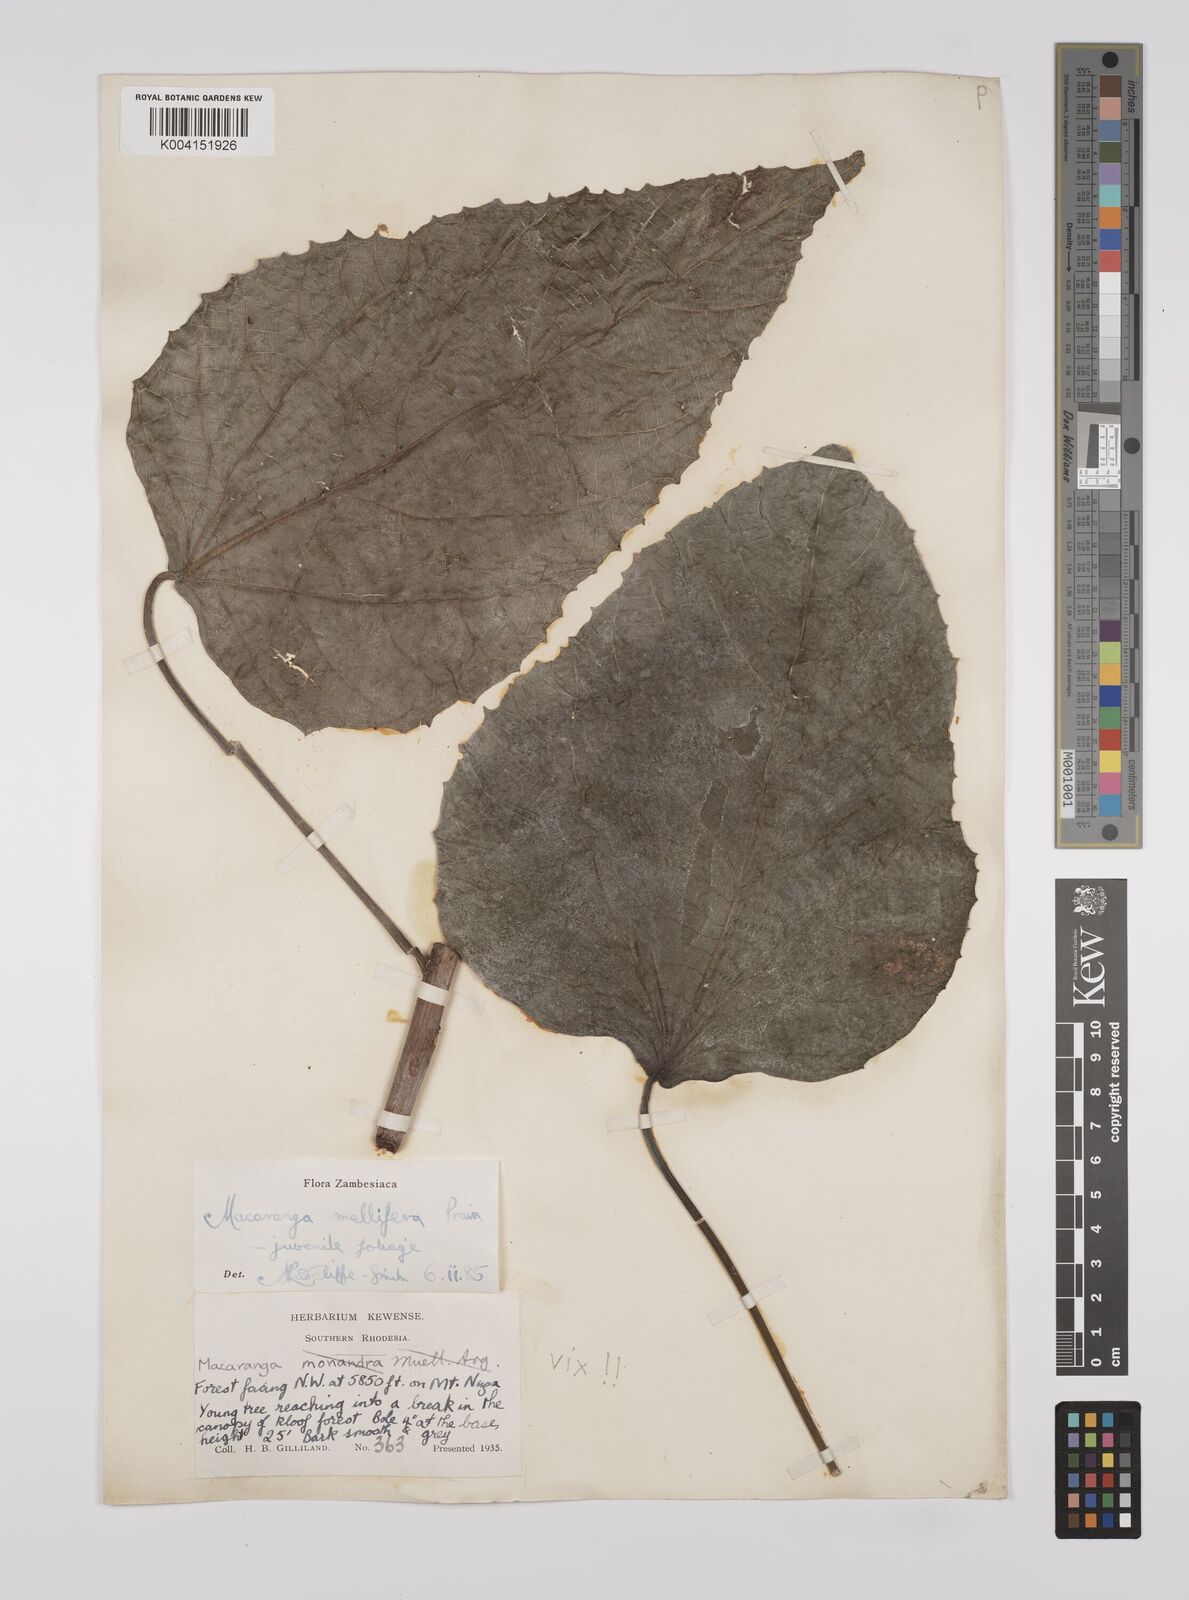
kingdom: Plantae
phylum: Tracheophyta
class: Magnoliopsida
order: Malpighiales
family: Euphorbiaceae
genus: Macaranga
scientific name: Macaranga mellifera
